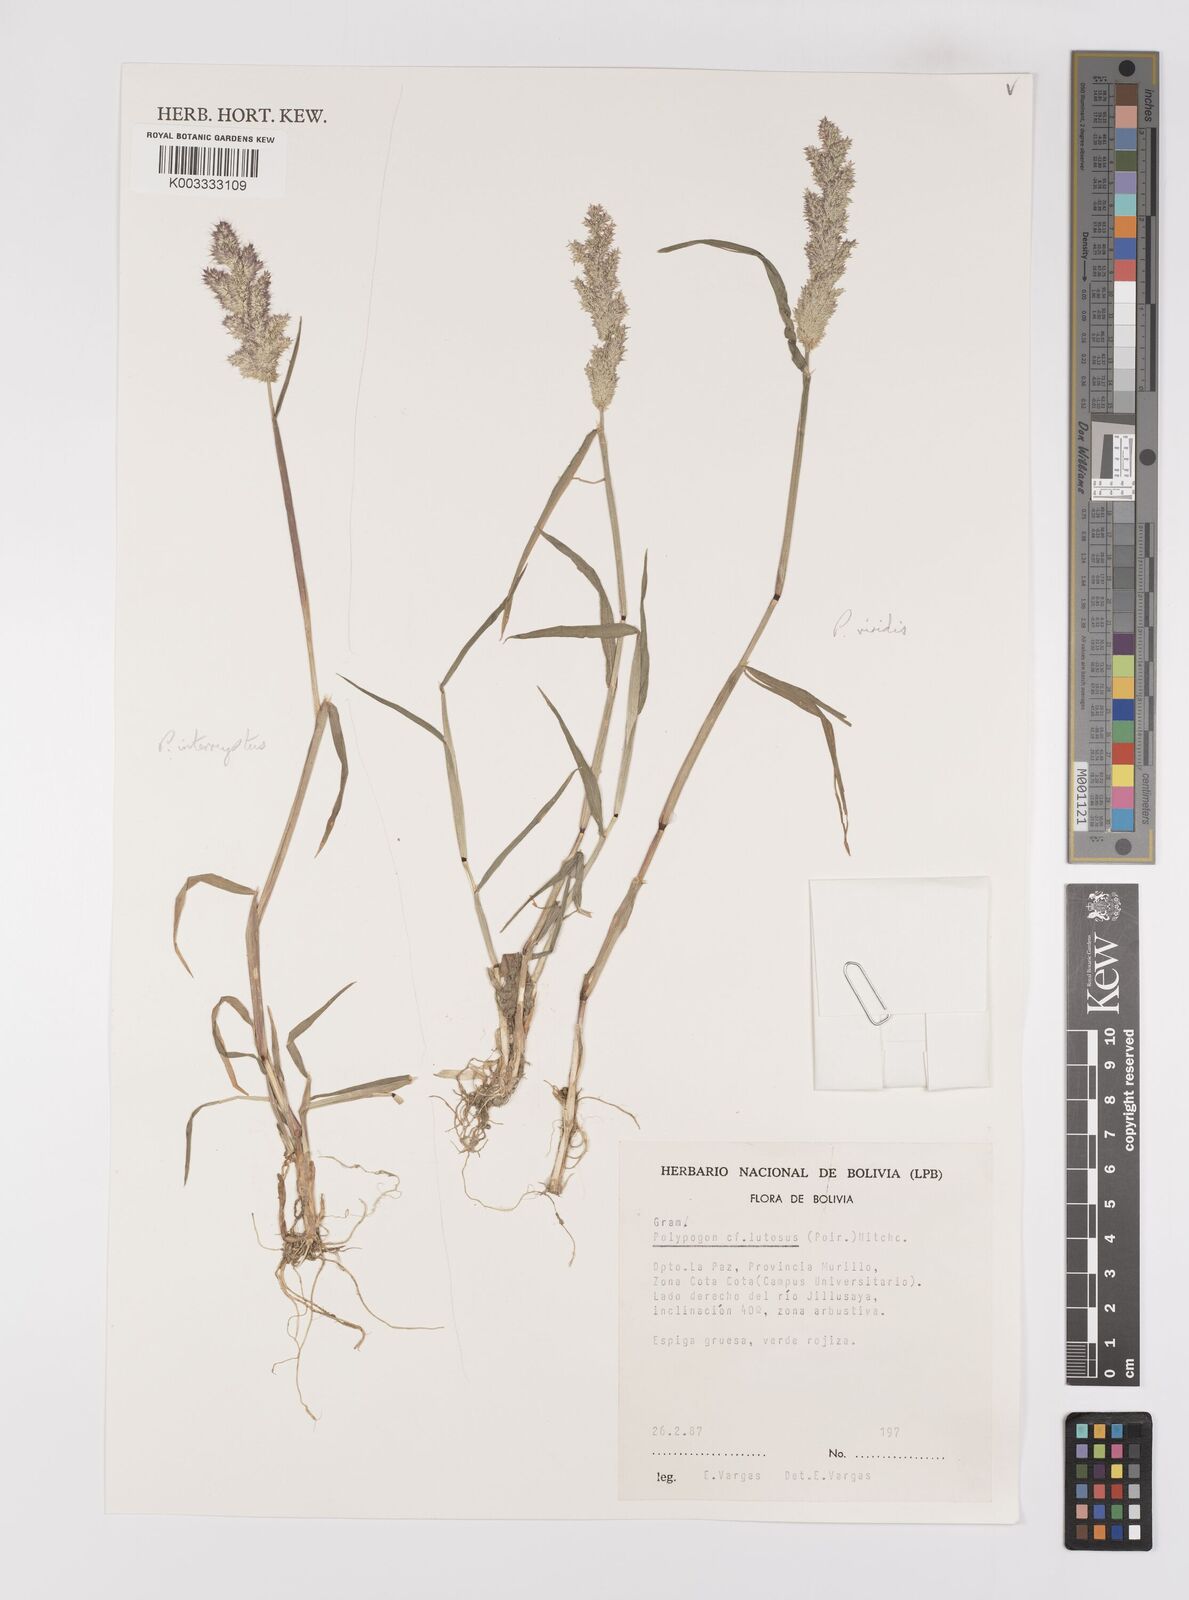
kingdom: Plantae
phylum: Tracheophyta
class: Liliopsida
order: Poales
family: Poaceae
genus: Polypogon
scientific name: Polypogon interruptus
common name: Ditch polypogon
